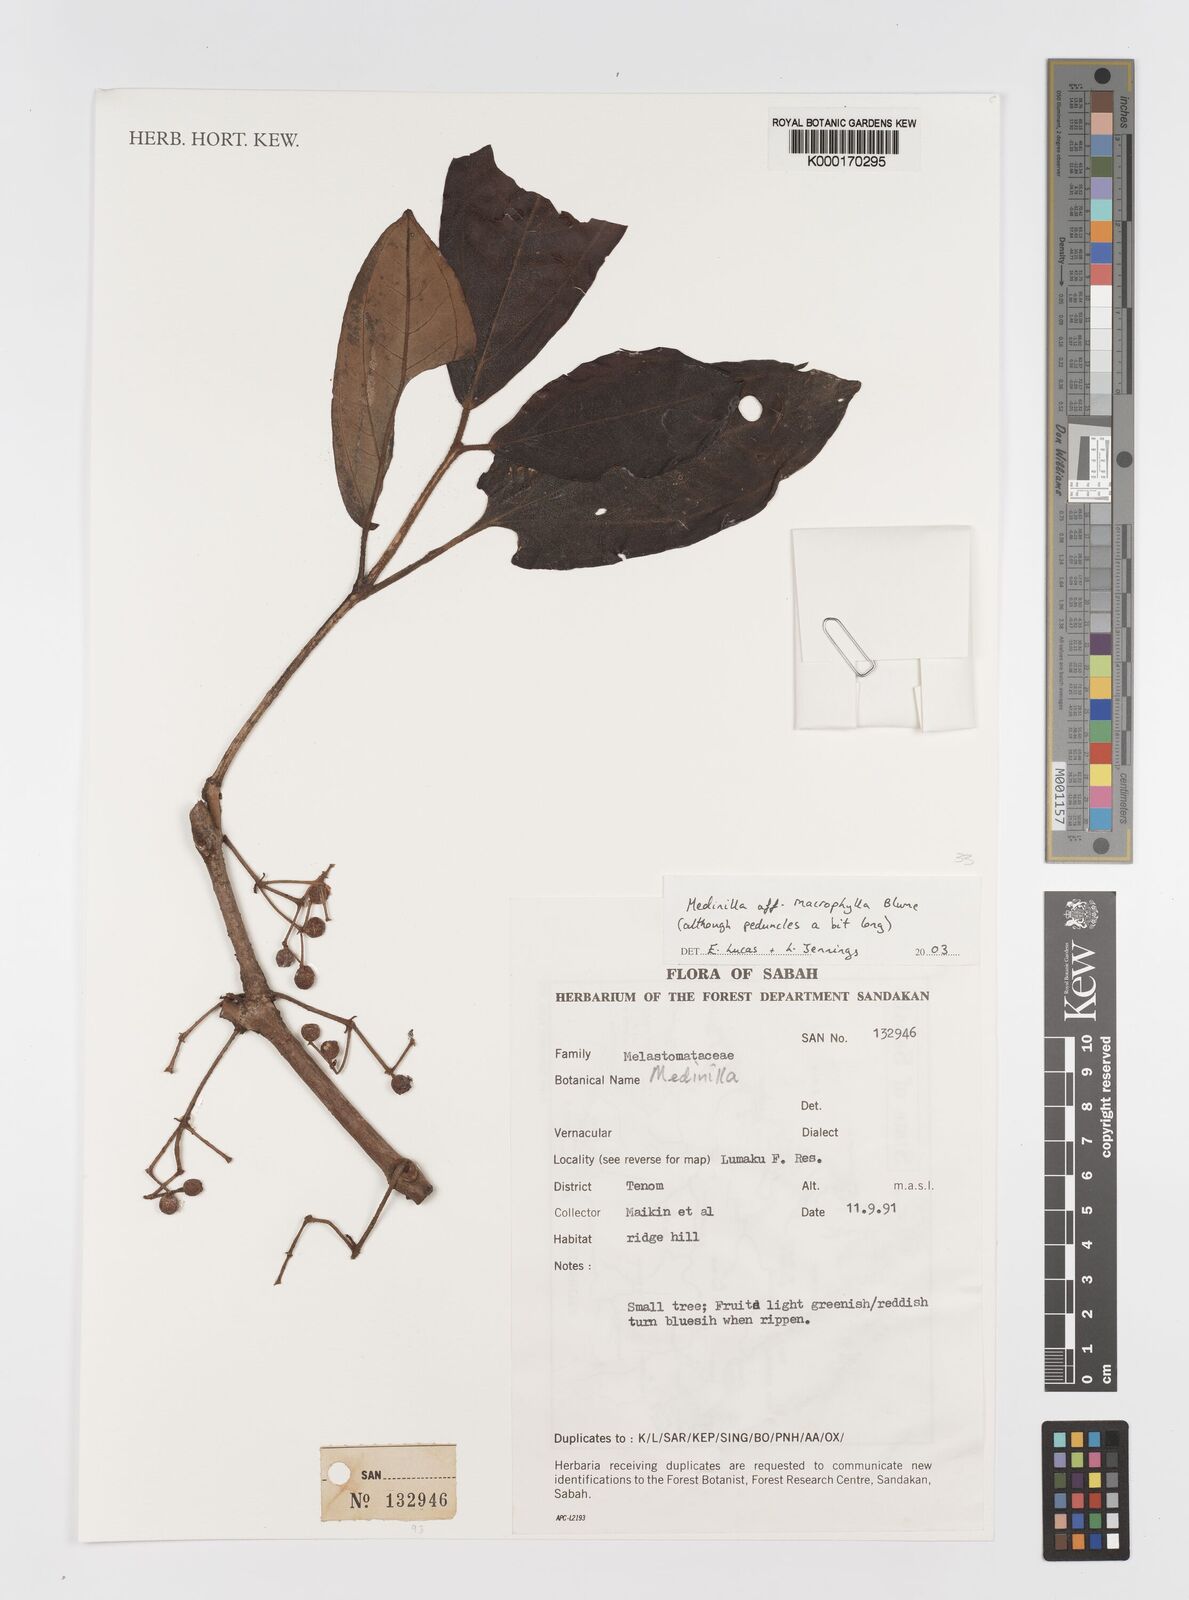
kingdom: Plantae
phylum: Tracheophyta
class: Magnoliopsida
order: Myrtales
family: Melastomataceae
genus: Medinilla
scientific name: Medinilla macrophylla
